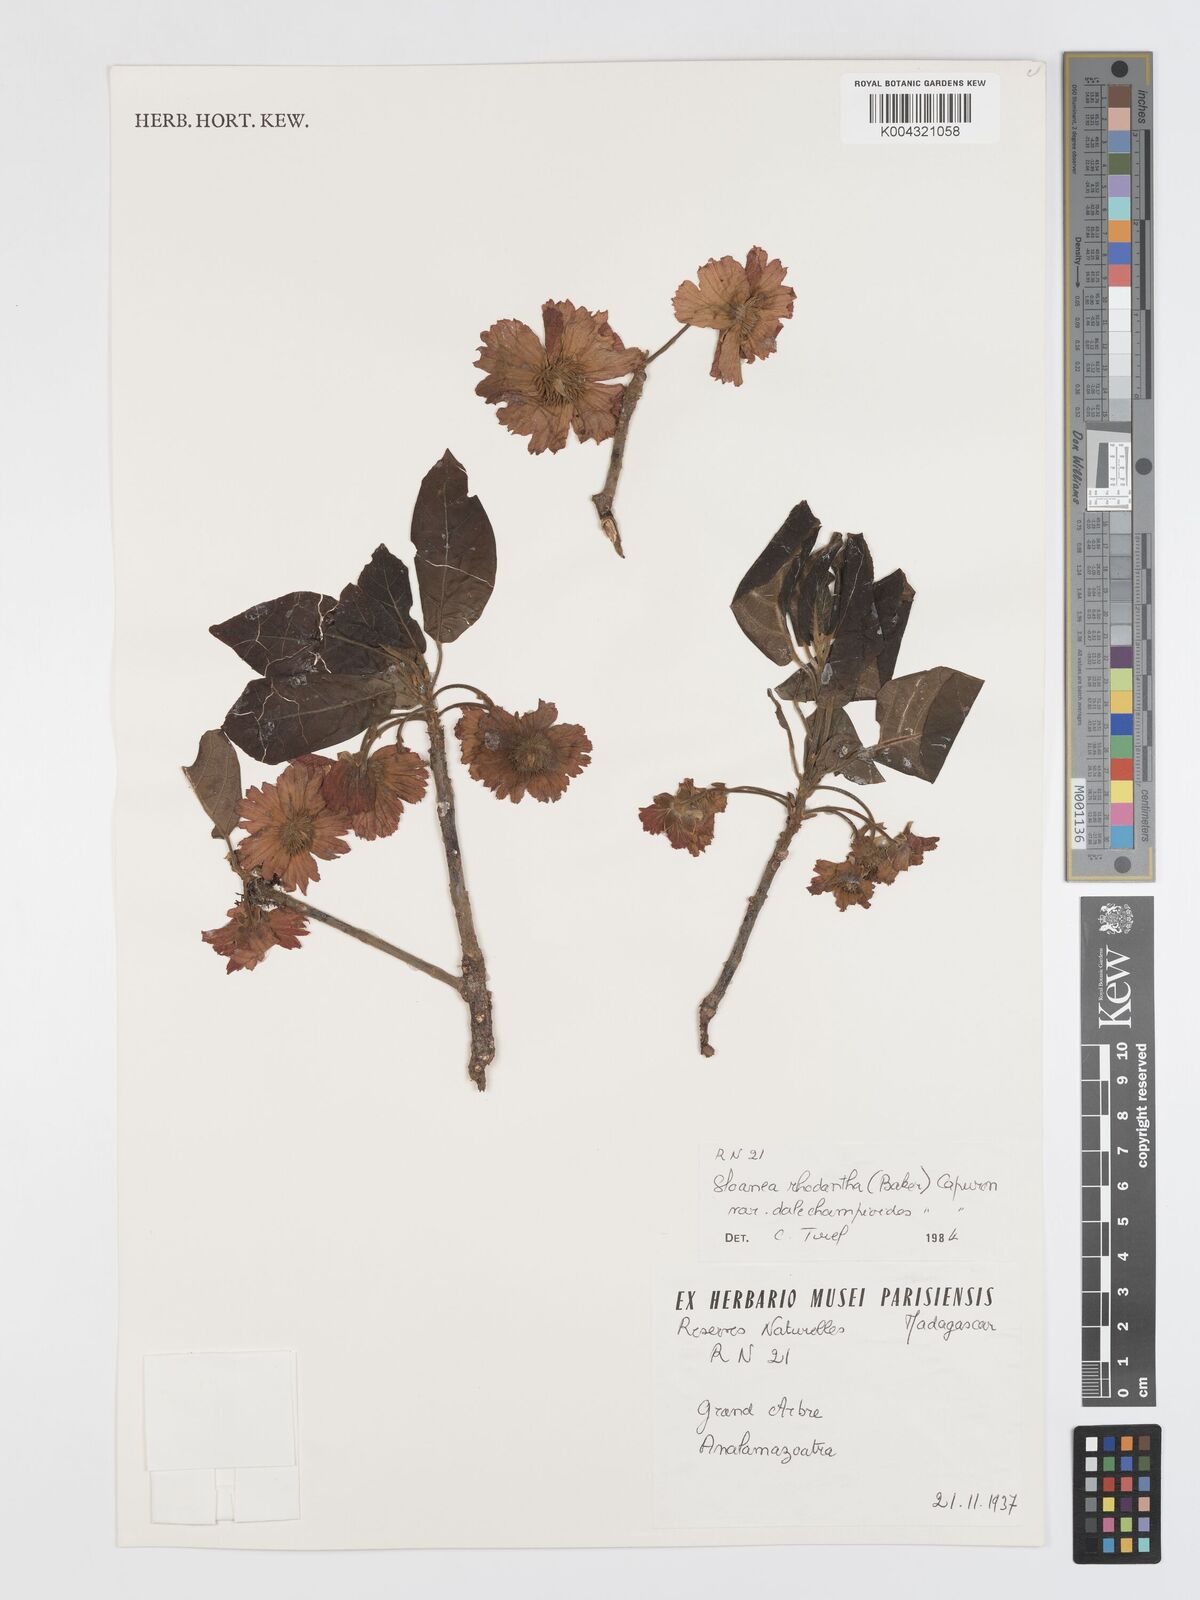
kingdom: Plantae
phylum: Tracheophyta
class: Magnoliopsida
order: Oxalidales
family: Elaeocarpaceae
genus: Sloanea
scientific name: Sloanea rhodantha
